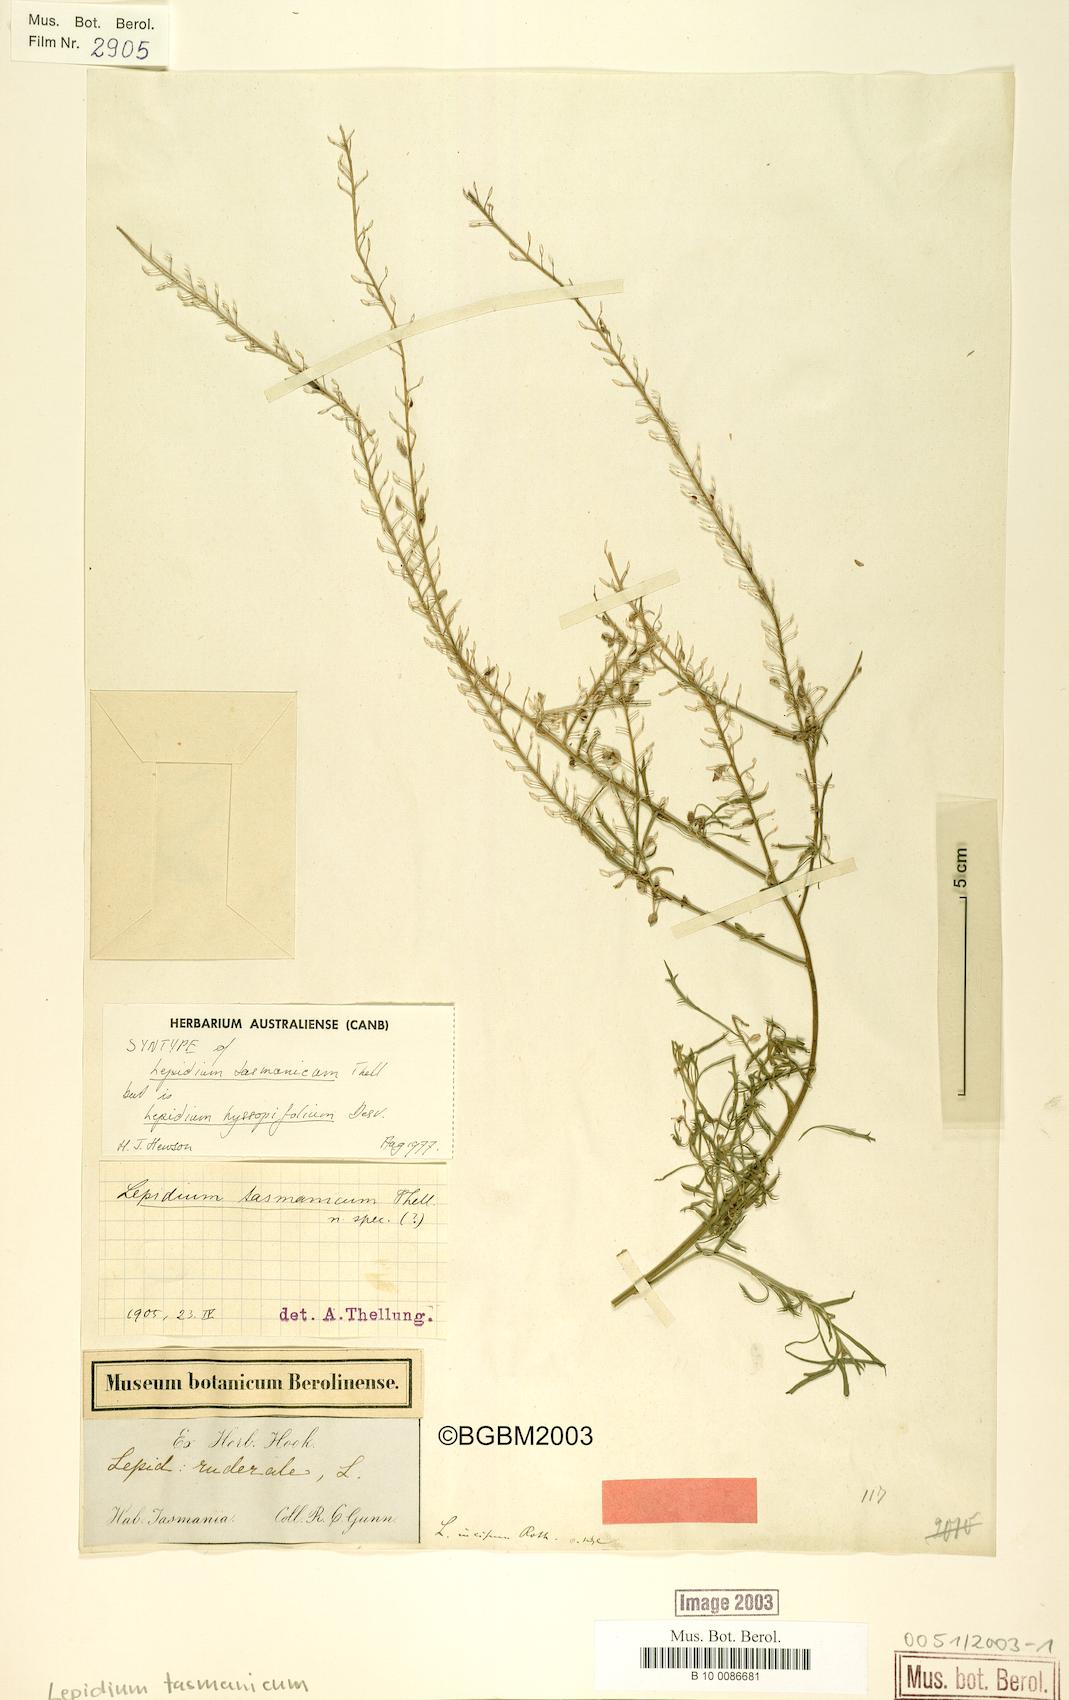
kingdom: Plantae
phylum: Tracheophyta
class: Magnoliopsida
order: Brassicales
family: Brassicaceae
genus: Lepidium
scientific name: Lepidium africanum
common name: African pepperwort
